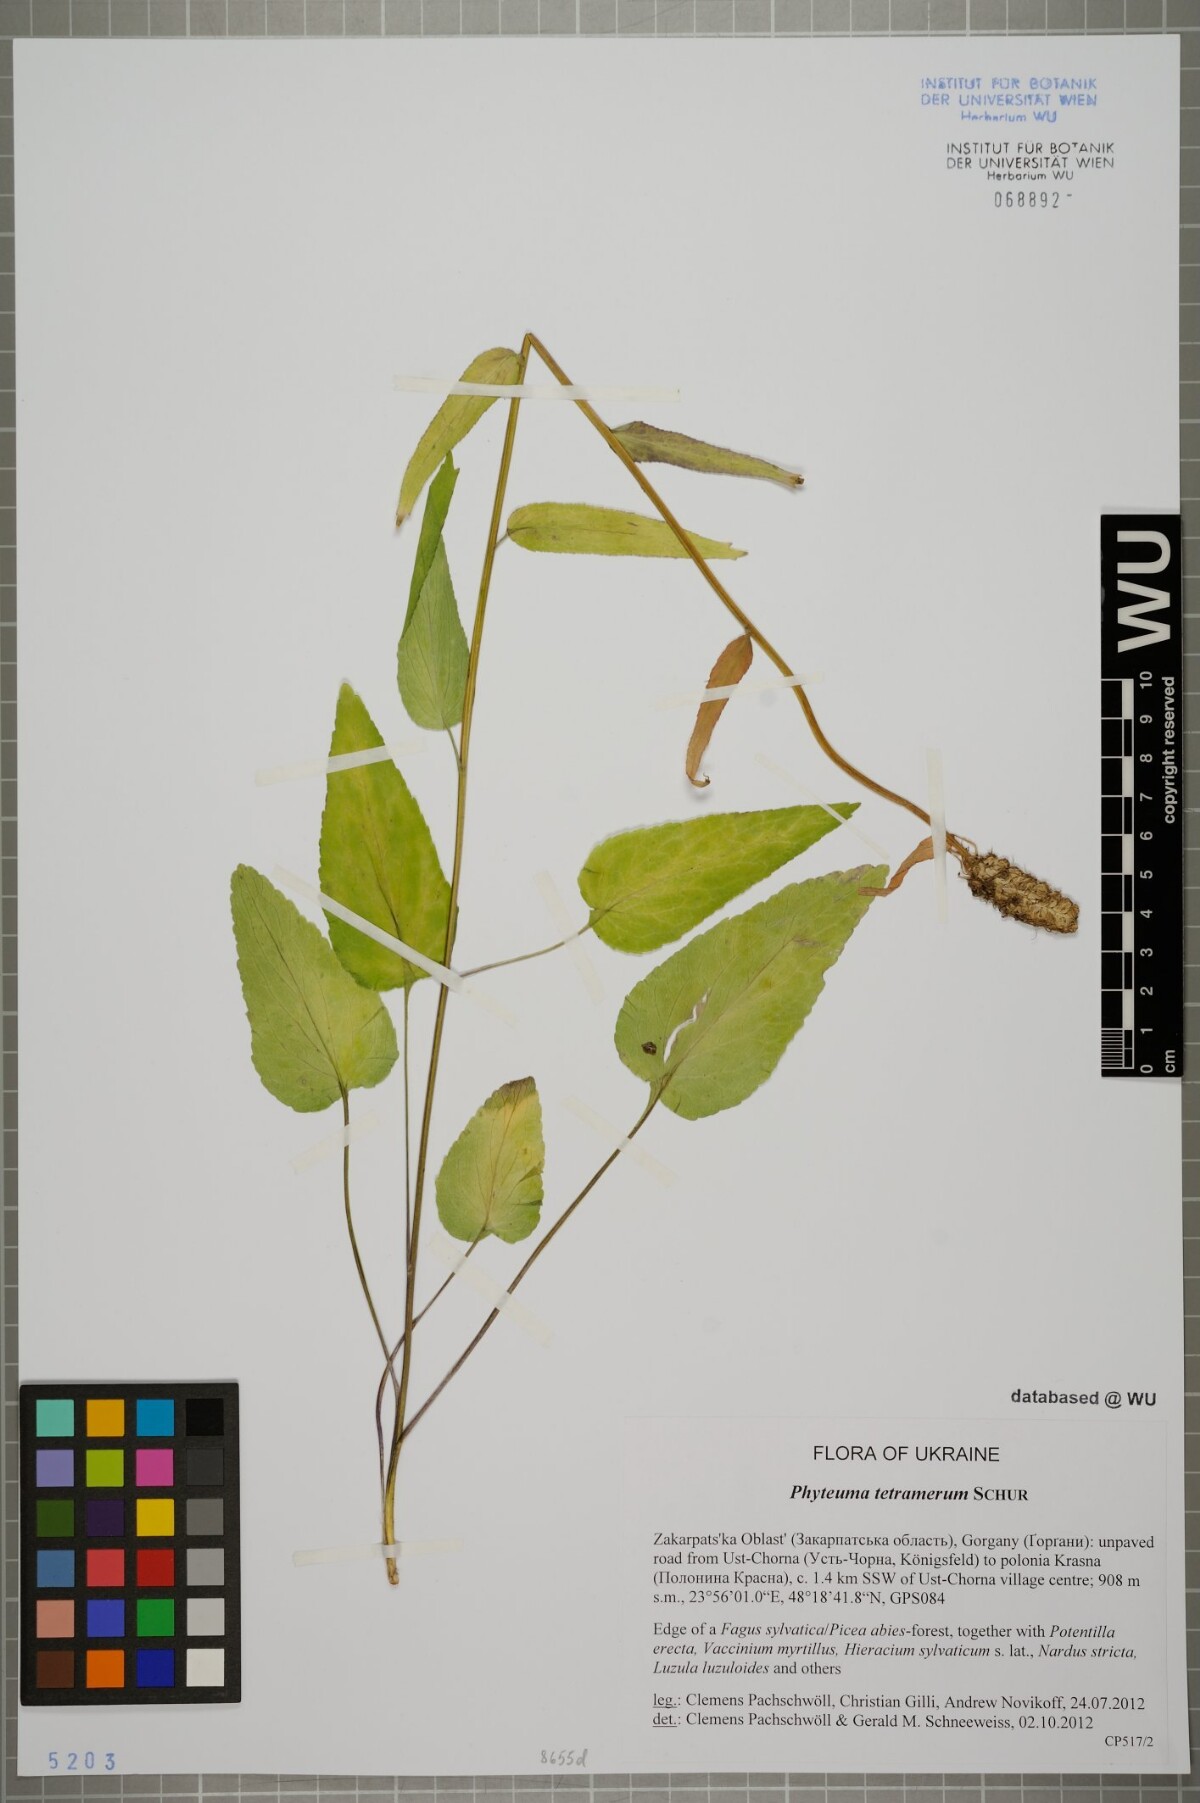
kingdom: Plantae
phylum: Tracheophyta
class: Magnoliopsida
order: Asterales
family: Campanulaceae
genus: Phyteuma
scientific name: Phyteuma tetramerum
